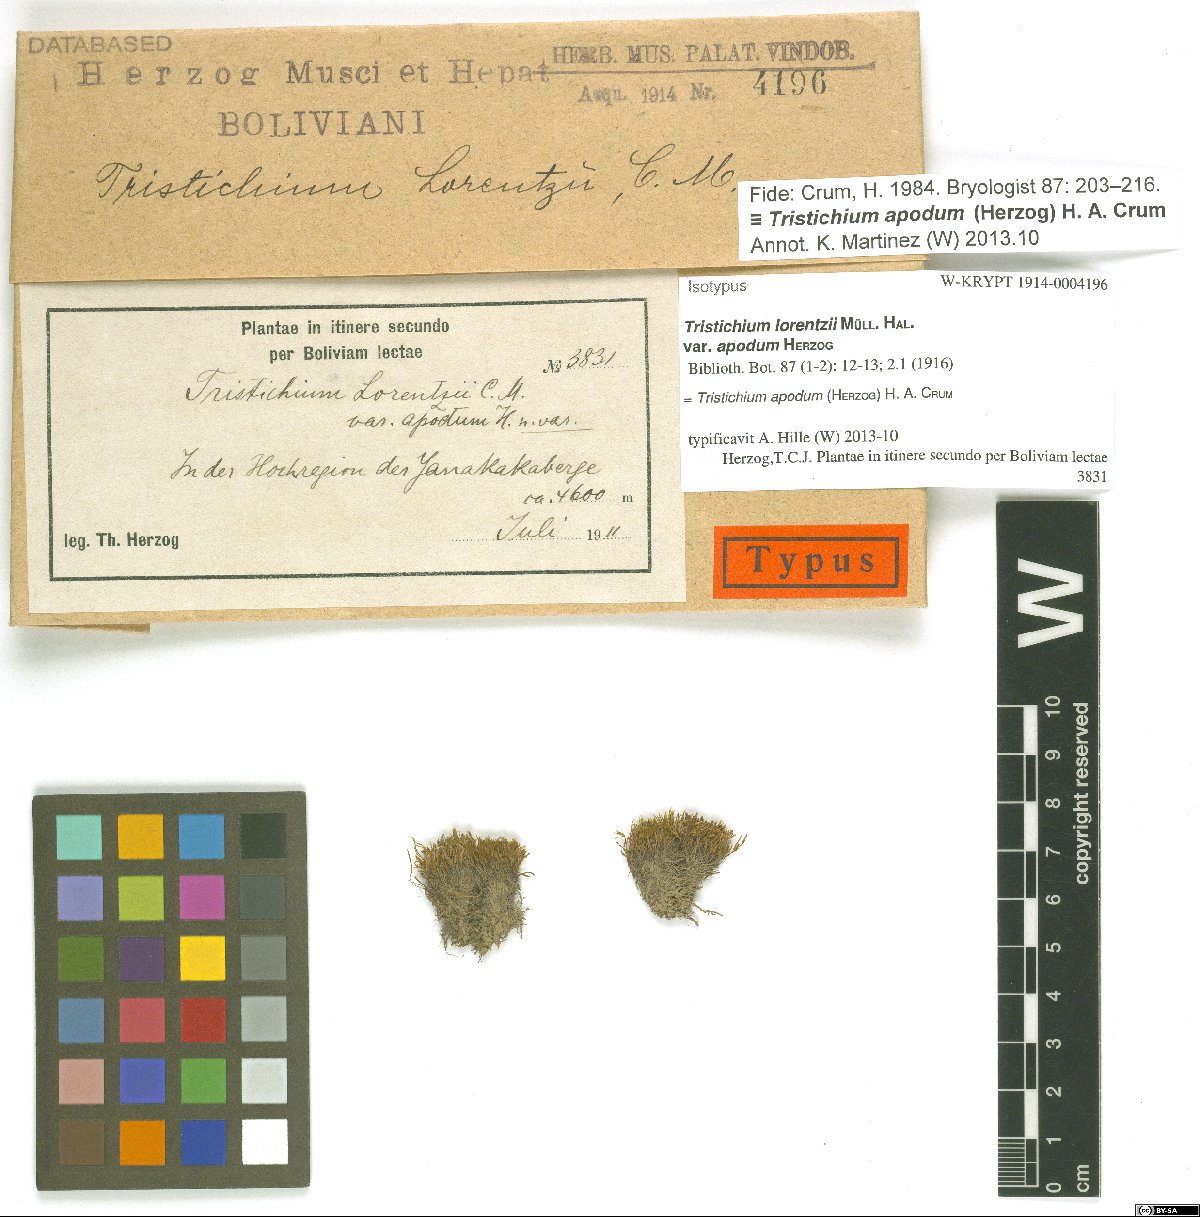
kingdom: Plantae
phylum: Bryophyta
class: Bryopsida
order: Dicranales
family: Ditrichaceae
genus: Tristichium
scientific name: Tristichium apodum
